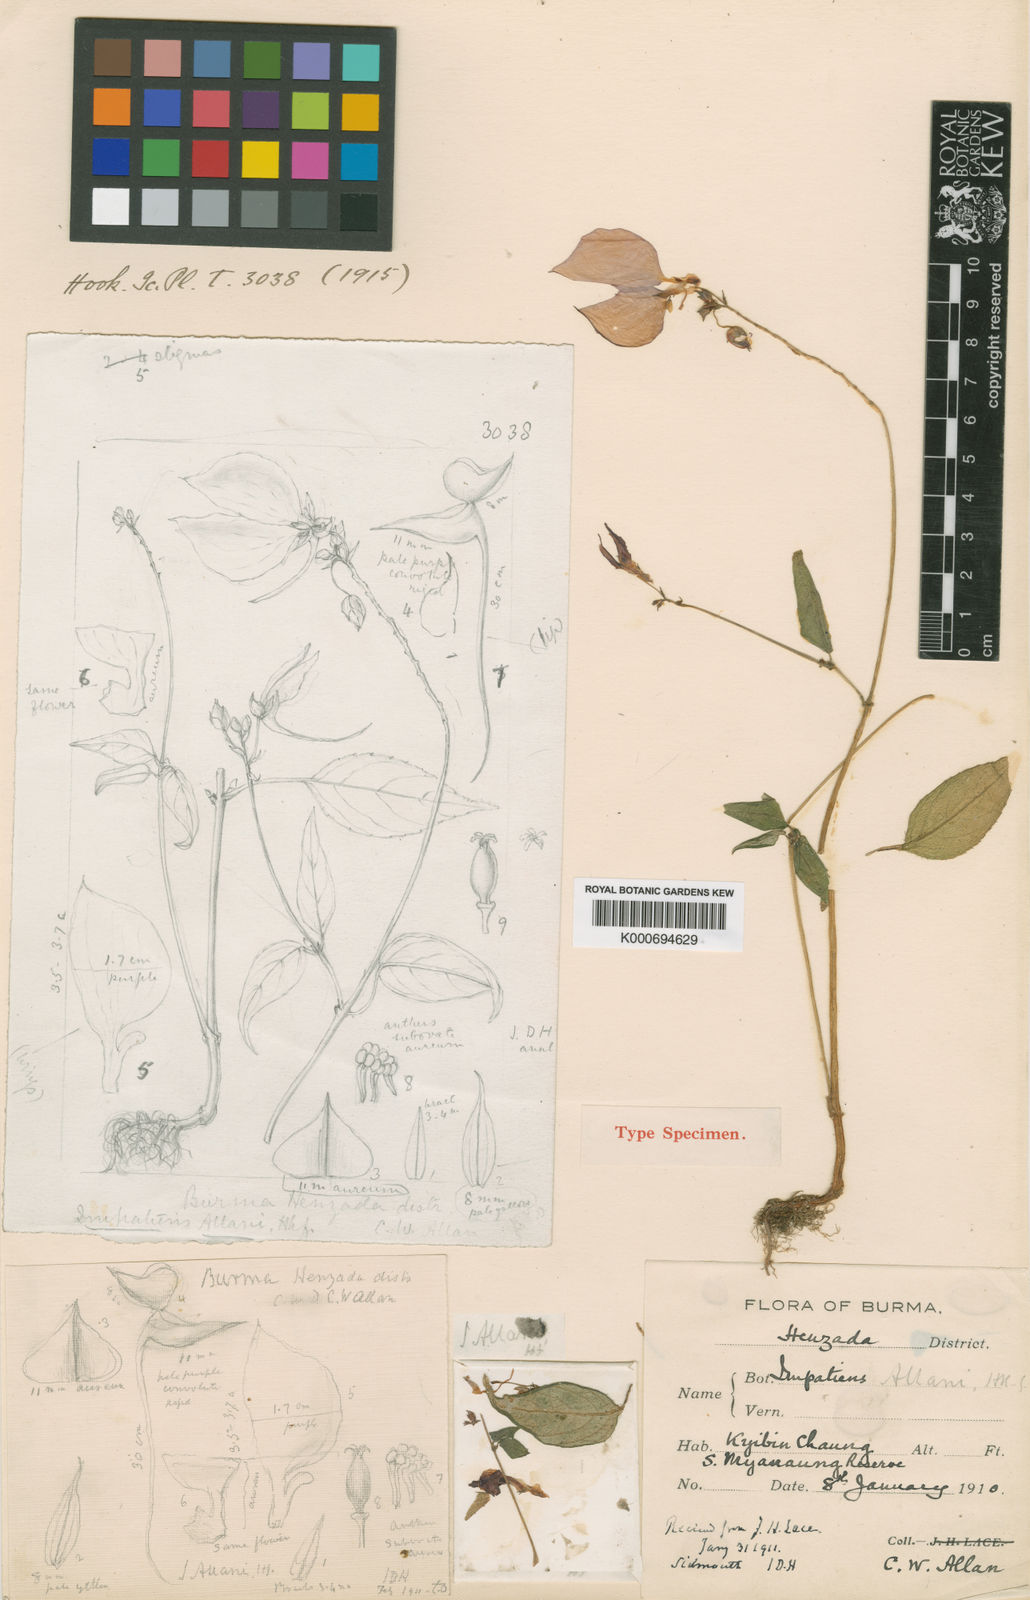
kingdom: Plantae
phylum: Tracheophyta
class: Magnoliopsida
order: Ericales
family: Balsaminaceae
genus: Impatiens
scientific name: Impatiens allanii
